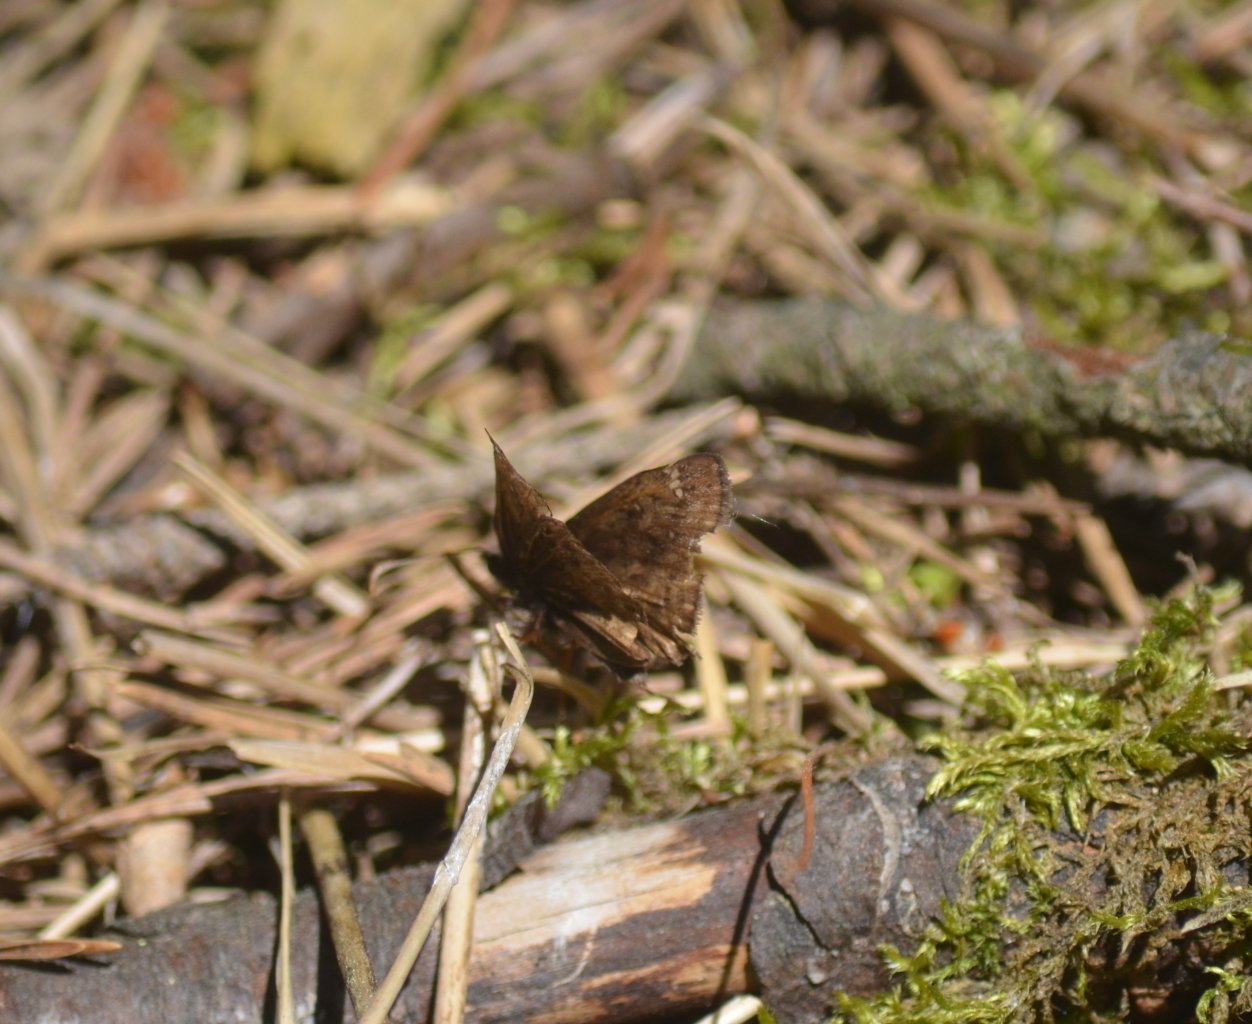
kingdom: Animalia
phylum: Arthropoda
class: Insecta
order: Lepidoptera
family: Hesperiidae
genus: Gesta
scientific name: Gesta
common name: Wild Indigo Duskywing
